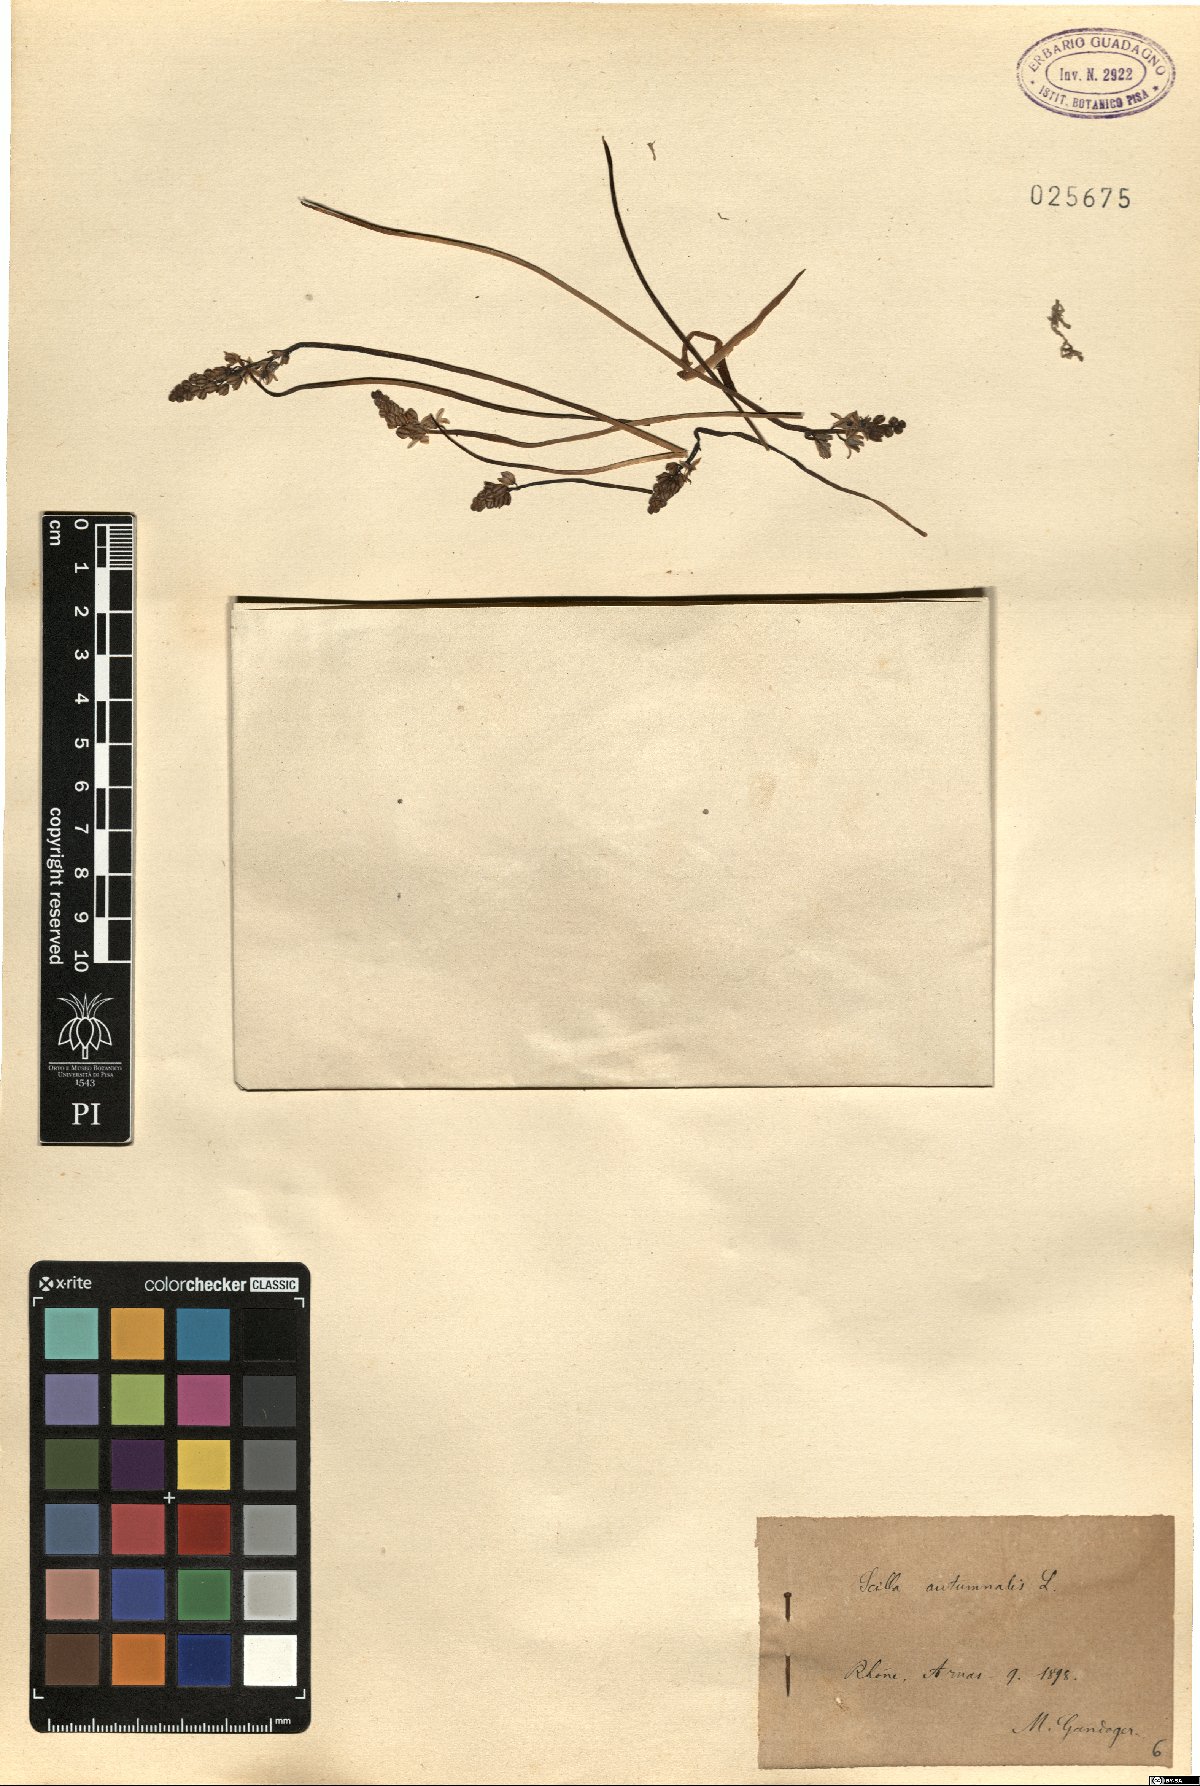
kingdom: Plantae
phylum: Tracheophyta
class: Liliopsida
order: Asparagales
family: Asparagaceae
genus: Prospero
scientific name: Prospero autumnale
